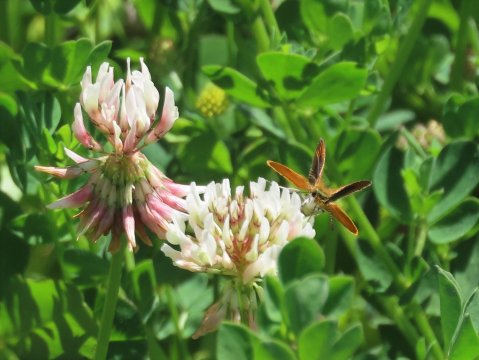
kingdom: Animalia
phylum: Arthropoda
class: Insecta
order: Lepidoptera
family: Hesperiidae
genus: Ancyloxypha
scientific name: Ancyloxypha numitor
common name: Least Skipper
